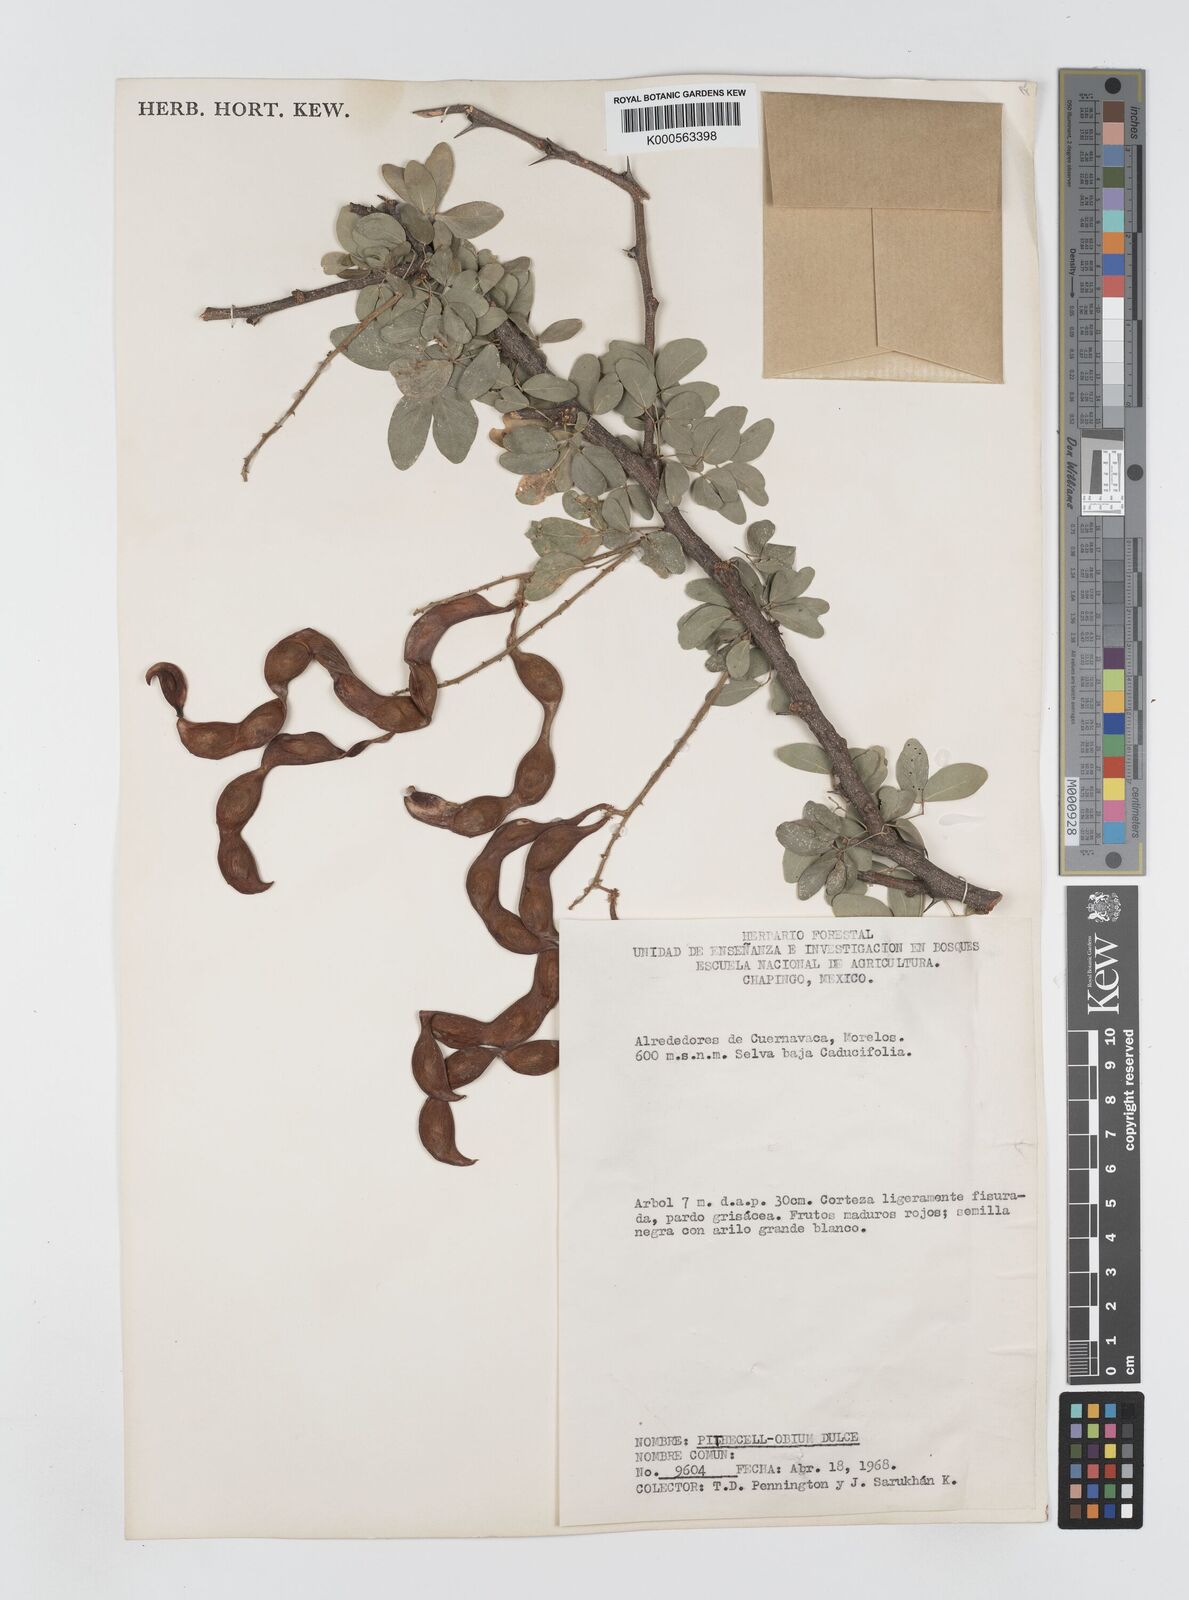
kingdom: Plantae
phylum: Tracheophyta
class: Magnoliopsida
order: Fabales
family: Fabaceae
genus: Pithecellobium
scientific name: Pithecellobium dulce
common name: Monkeypod
